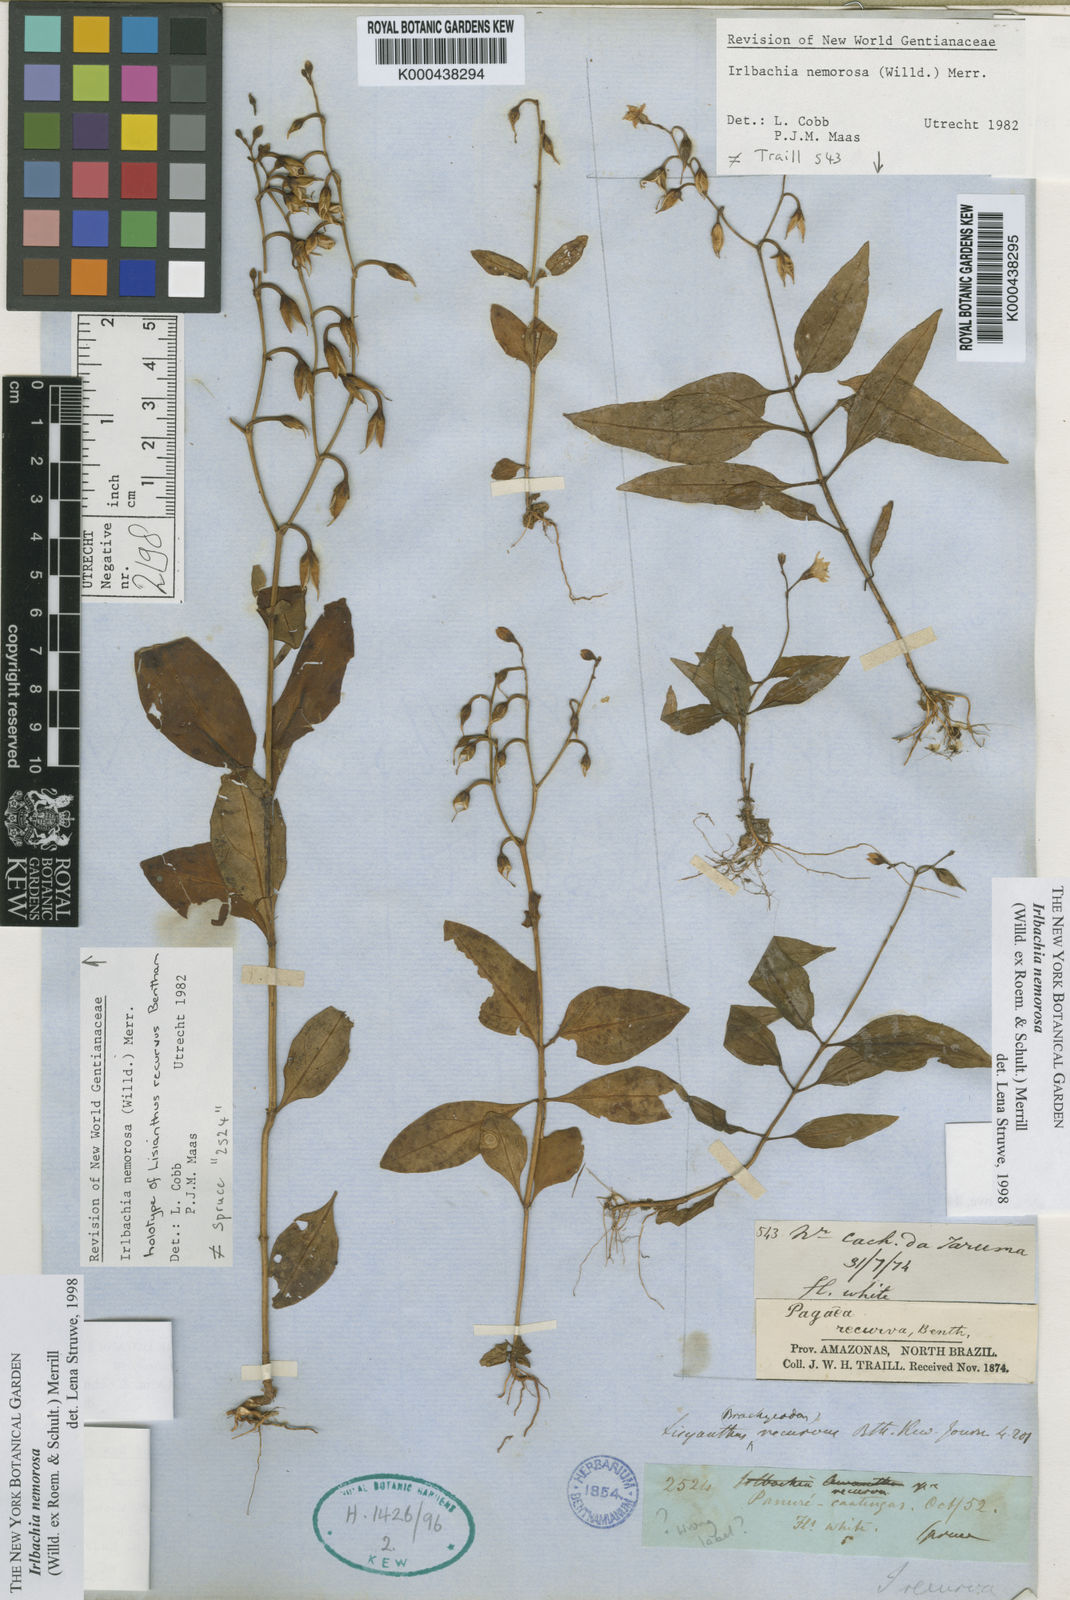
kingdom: Plantae
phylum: Tracheophyta
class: Magnoliopsida
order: Gentianales
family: Gentianaceae
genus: Lisianthius
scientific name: Lisianthius
